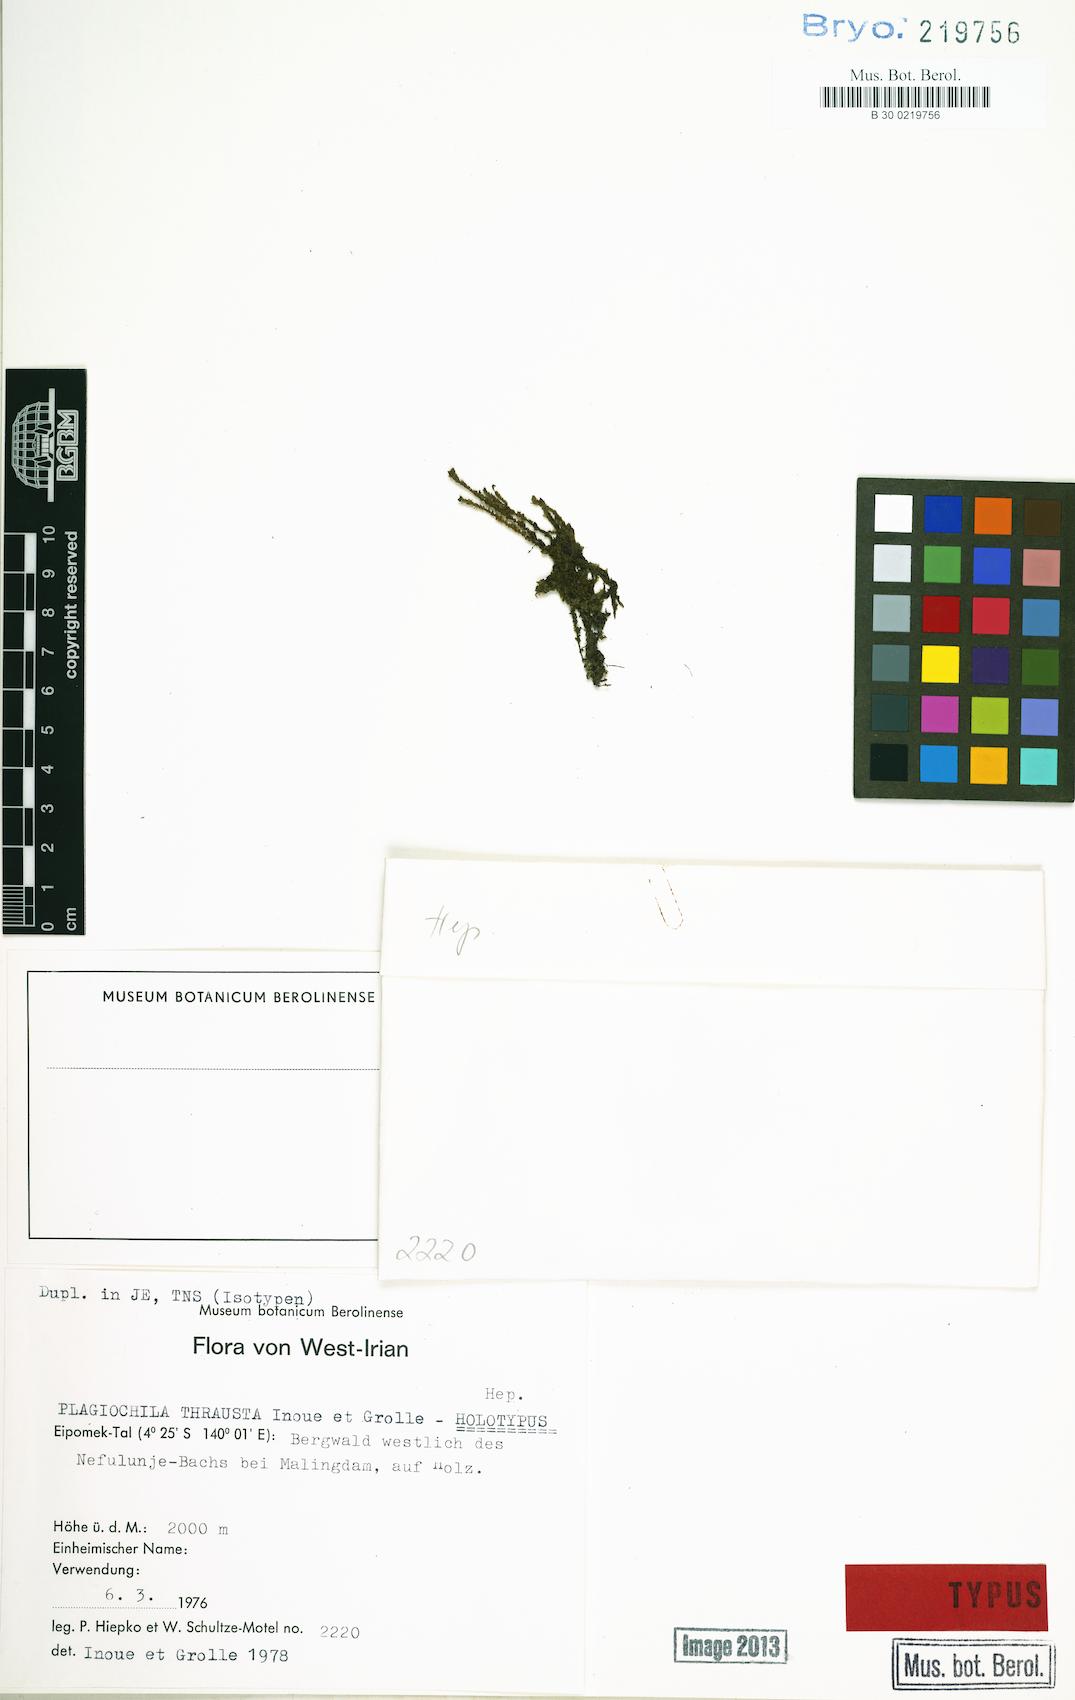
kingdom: Plantae
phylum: Marchantiophyta
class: Jungermanniopsida
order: Jungermanniales
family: Plagiochilaceae
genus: Plagiochila
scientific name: Plagiochila thrausta
